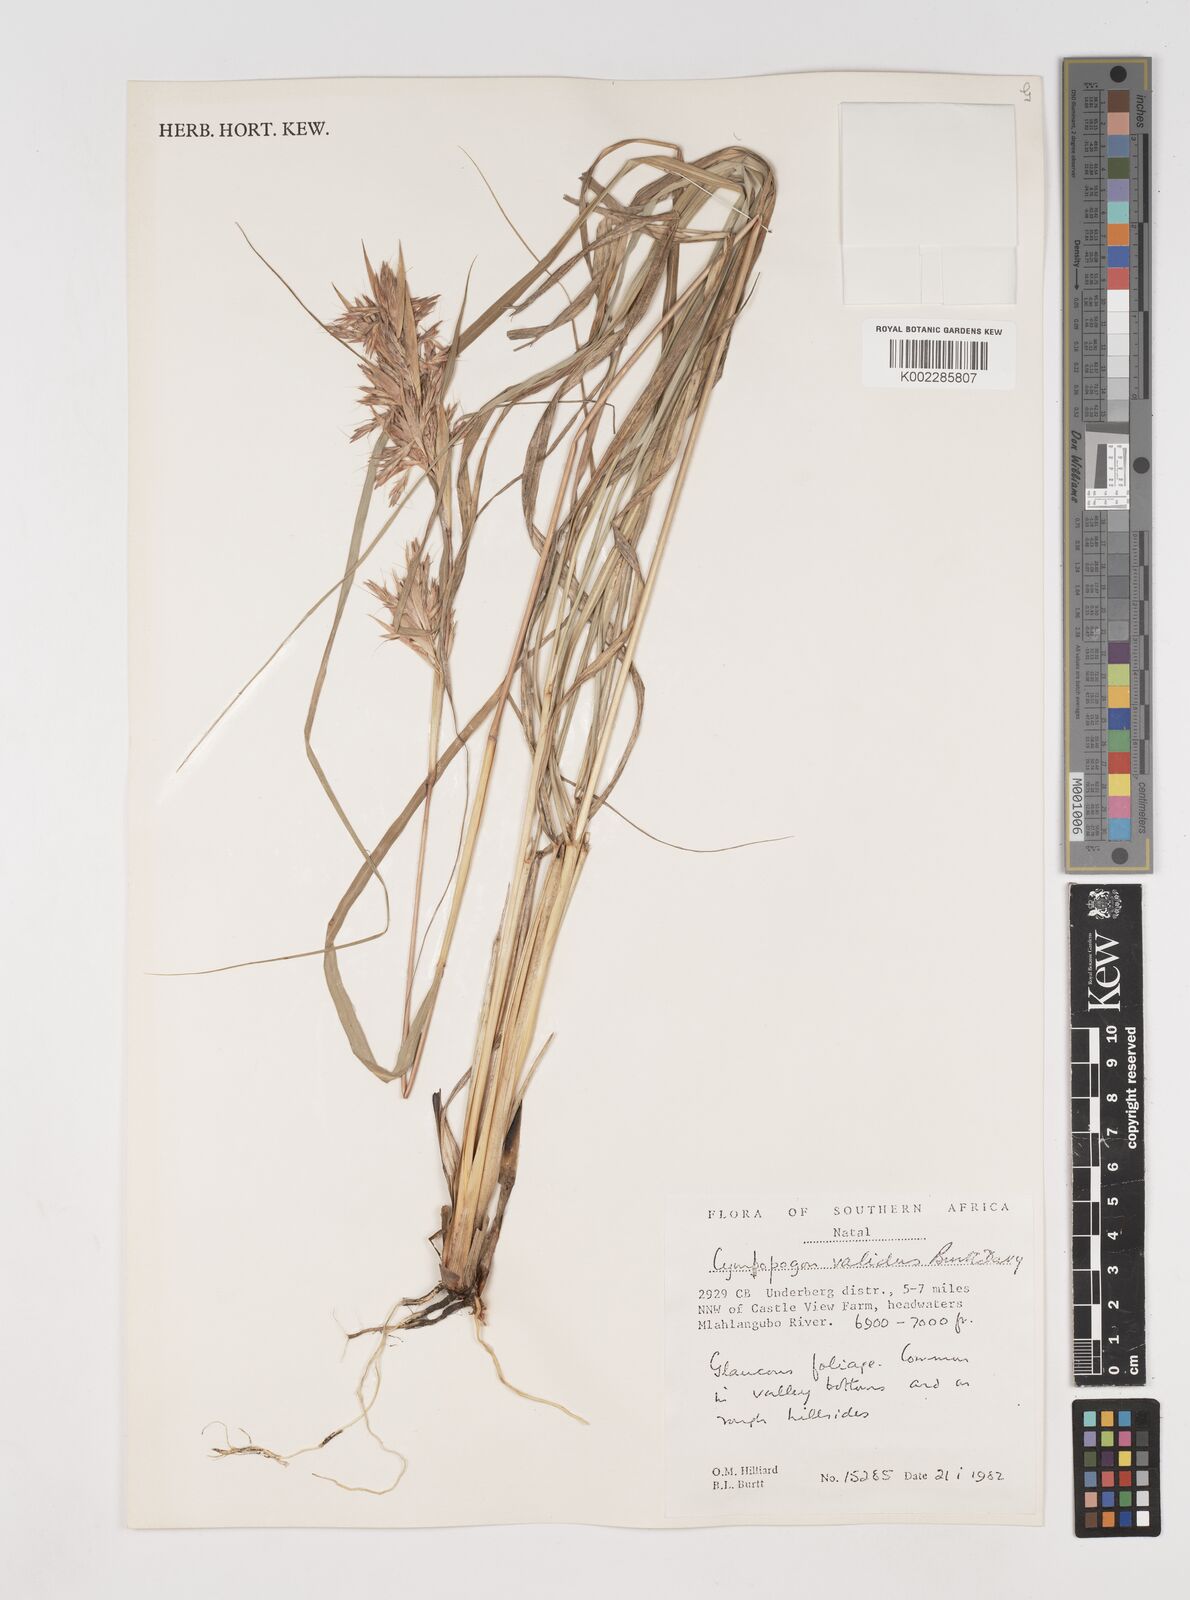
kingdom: Plantae
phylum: Tracheophyta
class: Liliopsida
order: Poales
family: Poaceae
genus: Cymbopogon
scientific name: Cymbopogon nardus
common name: Giant turpentine grass
